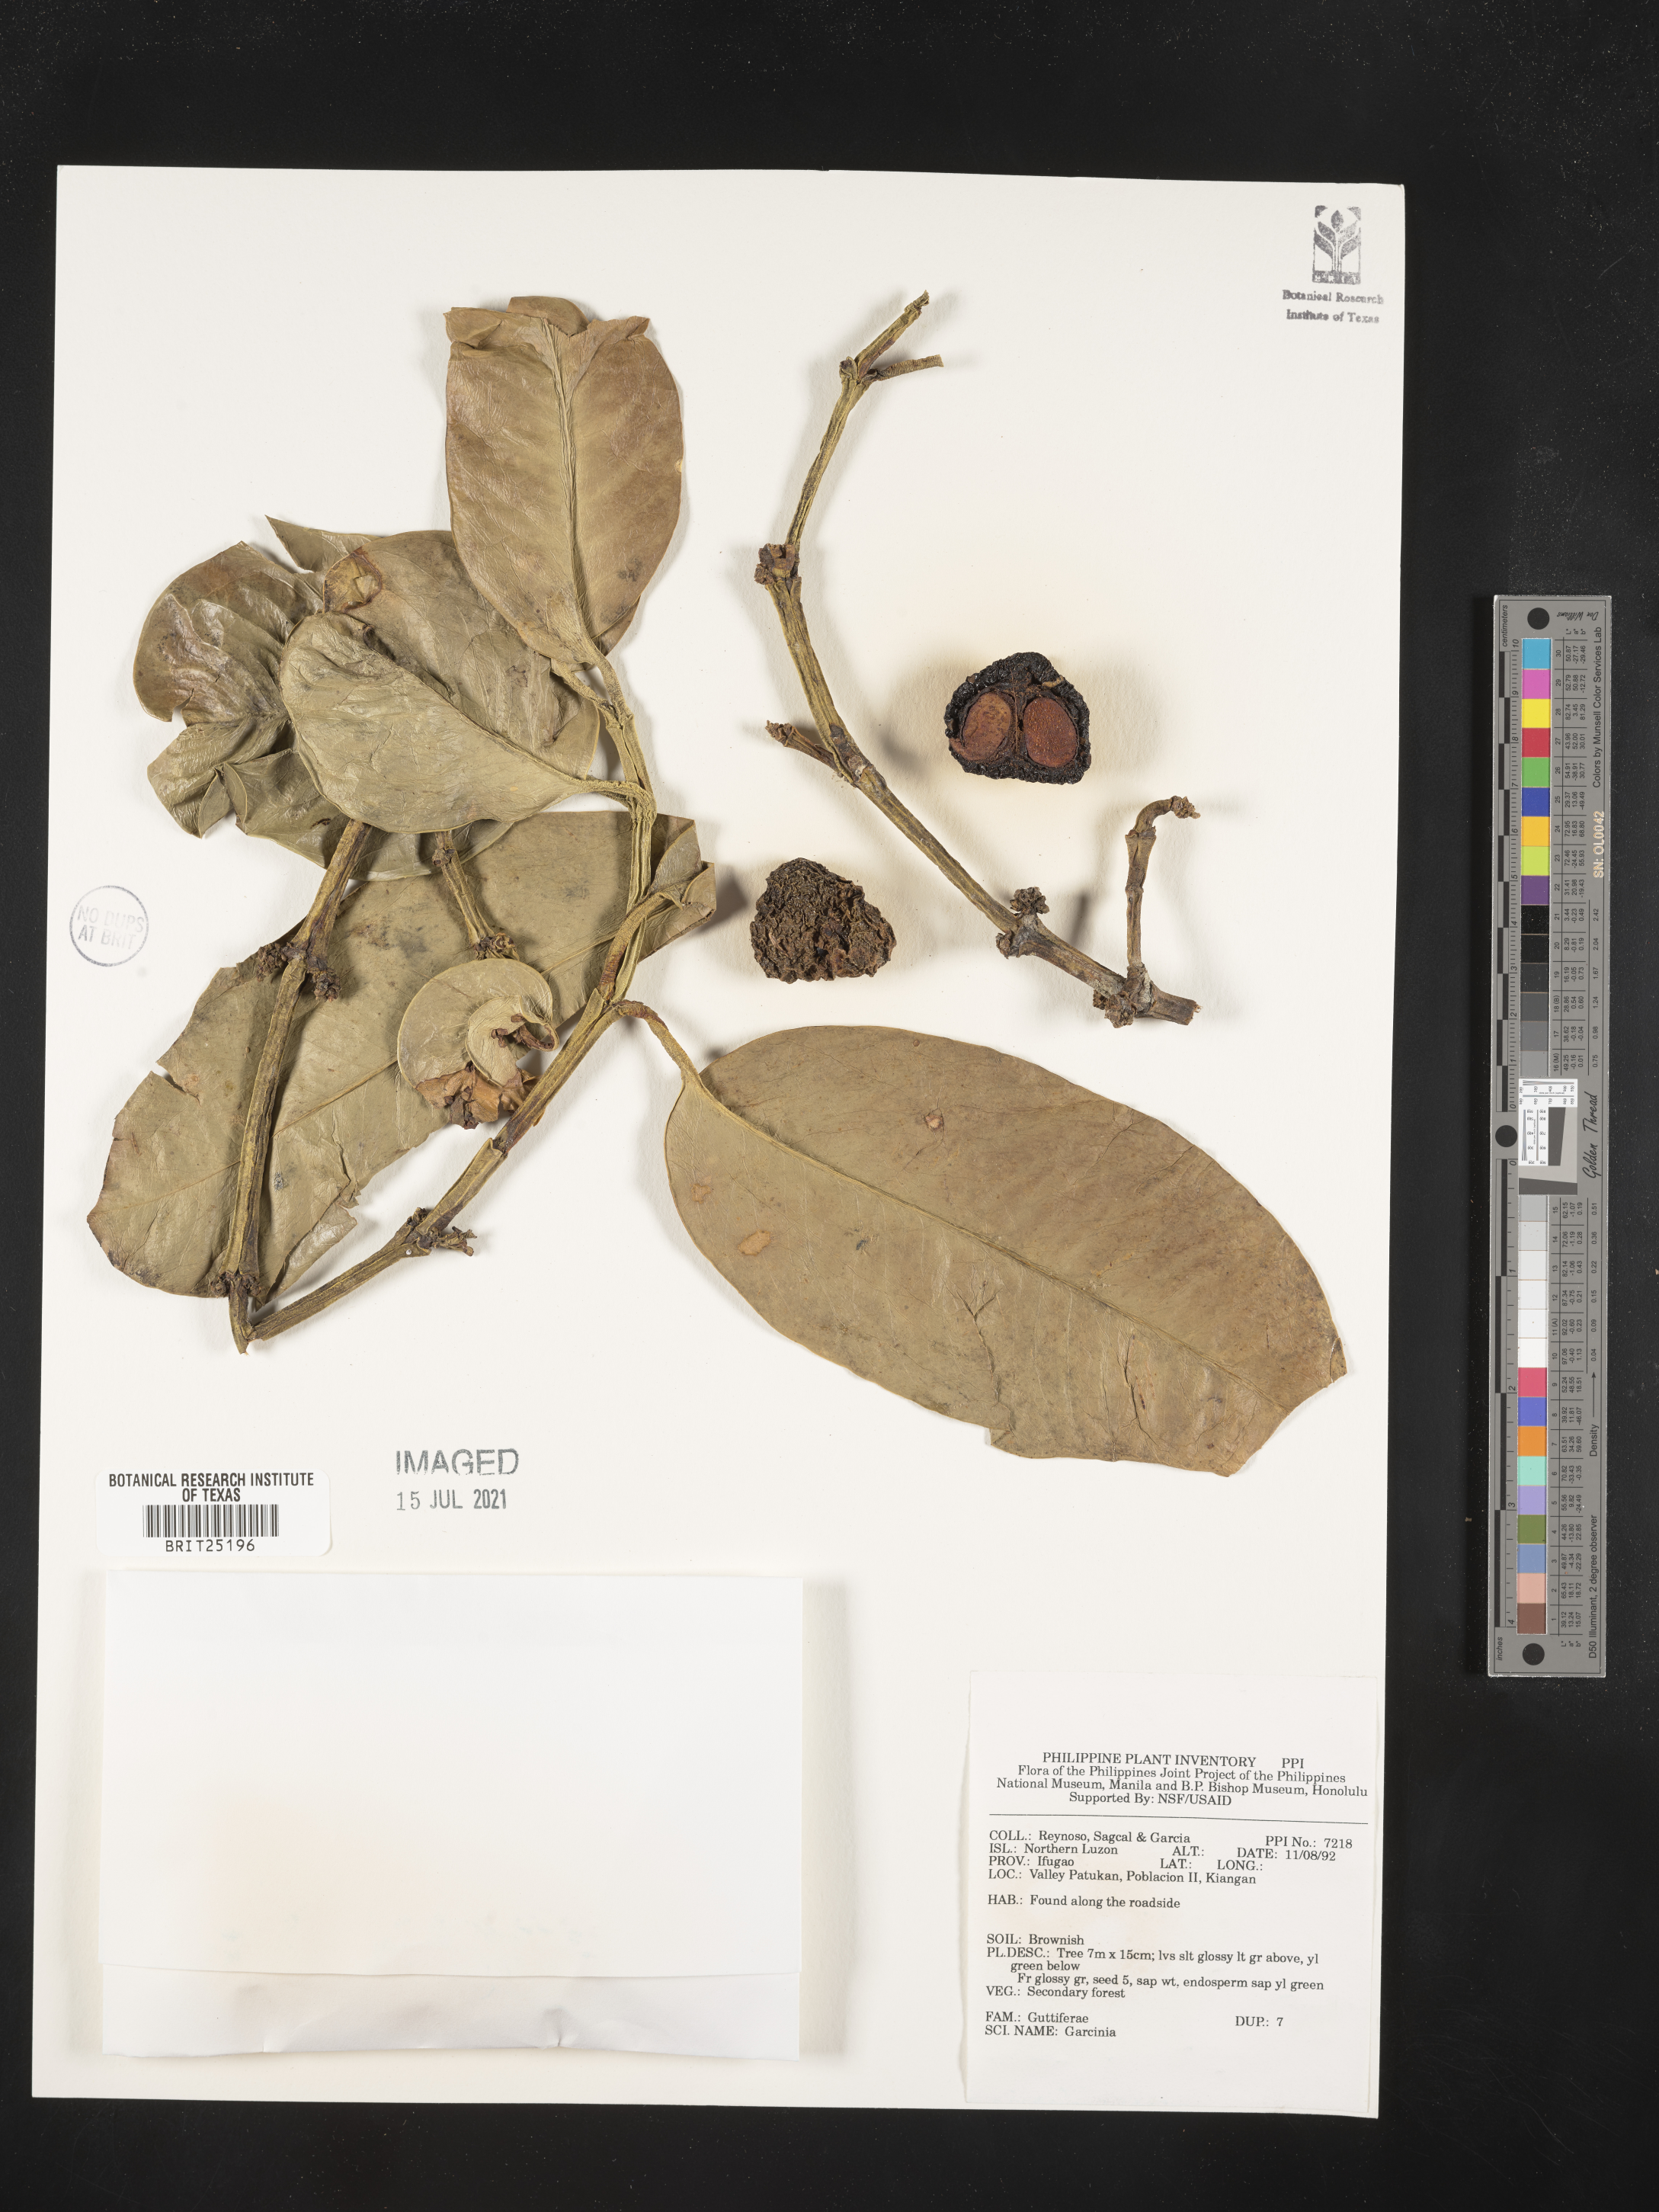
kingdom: Plantae
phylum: Tracheophyta
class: Magnoliopsida
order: Malpighiales
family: Clusiaceae
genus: Garcinia
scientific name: Garcinia
